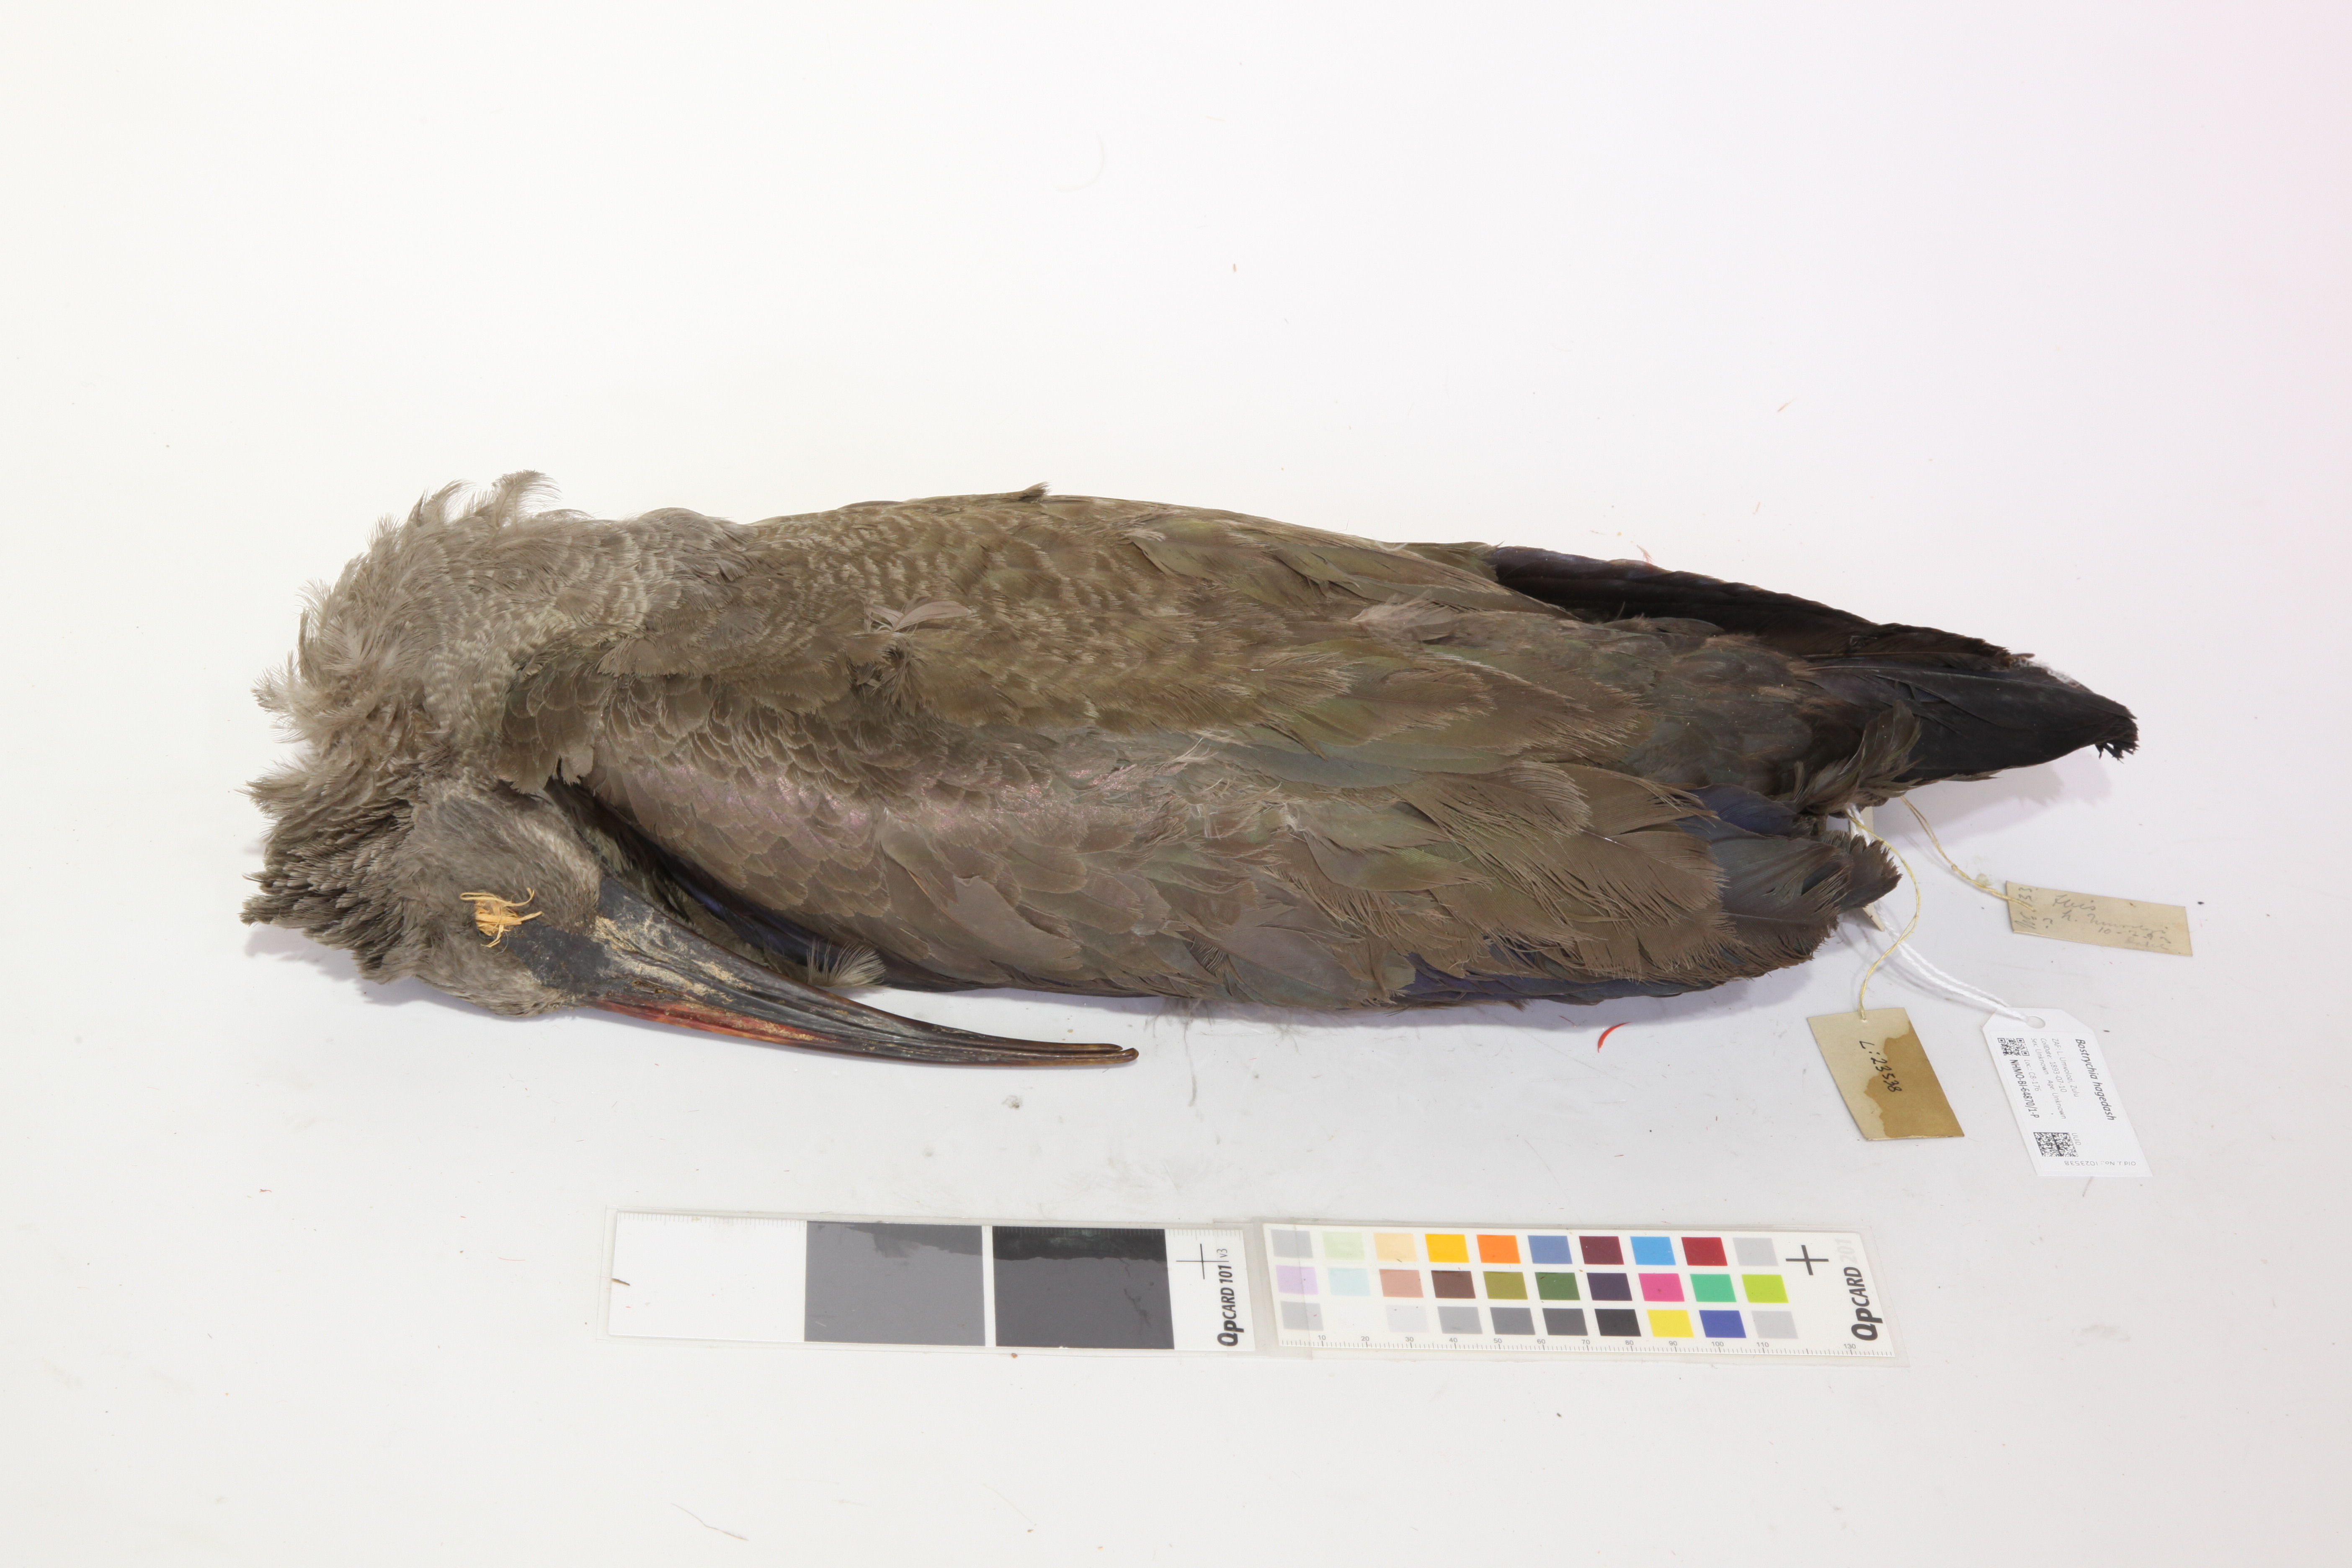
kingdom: Animalia
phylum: Chordata
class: Aves
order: Pelecaniformes
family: Threskiornithidae
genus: Bostrychia
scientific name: Bostrychia hagedash
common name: Hadada ibis
